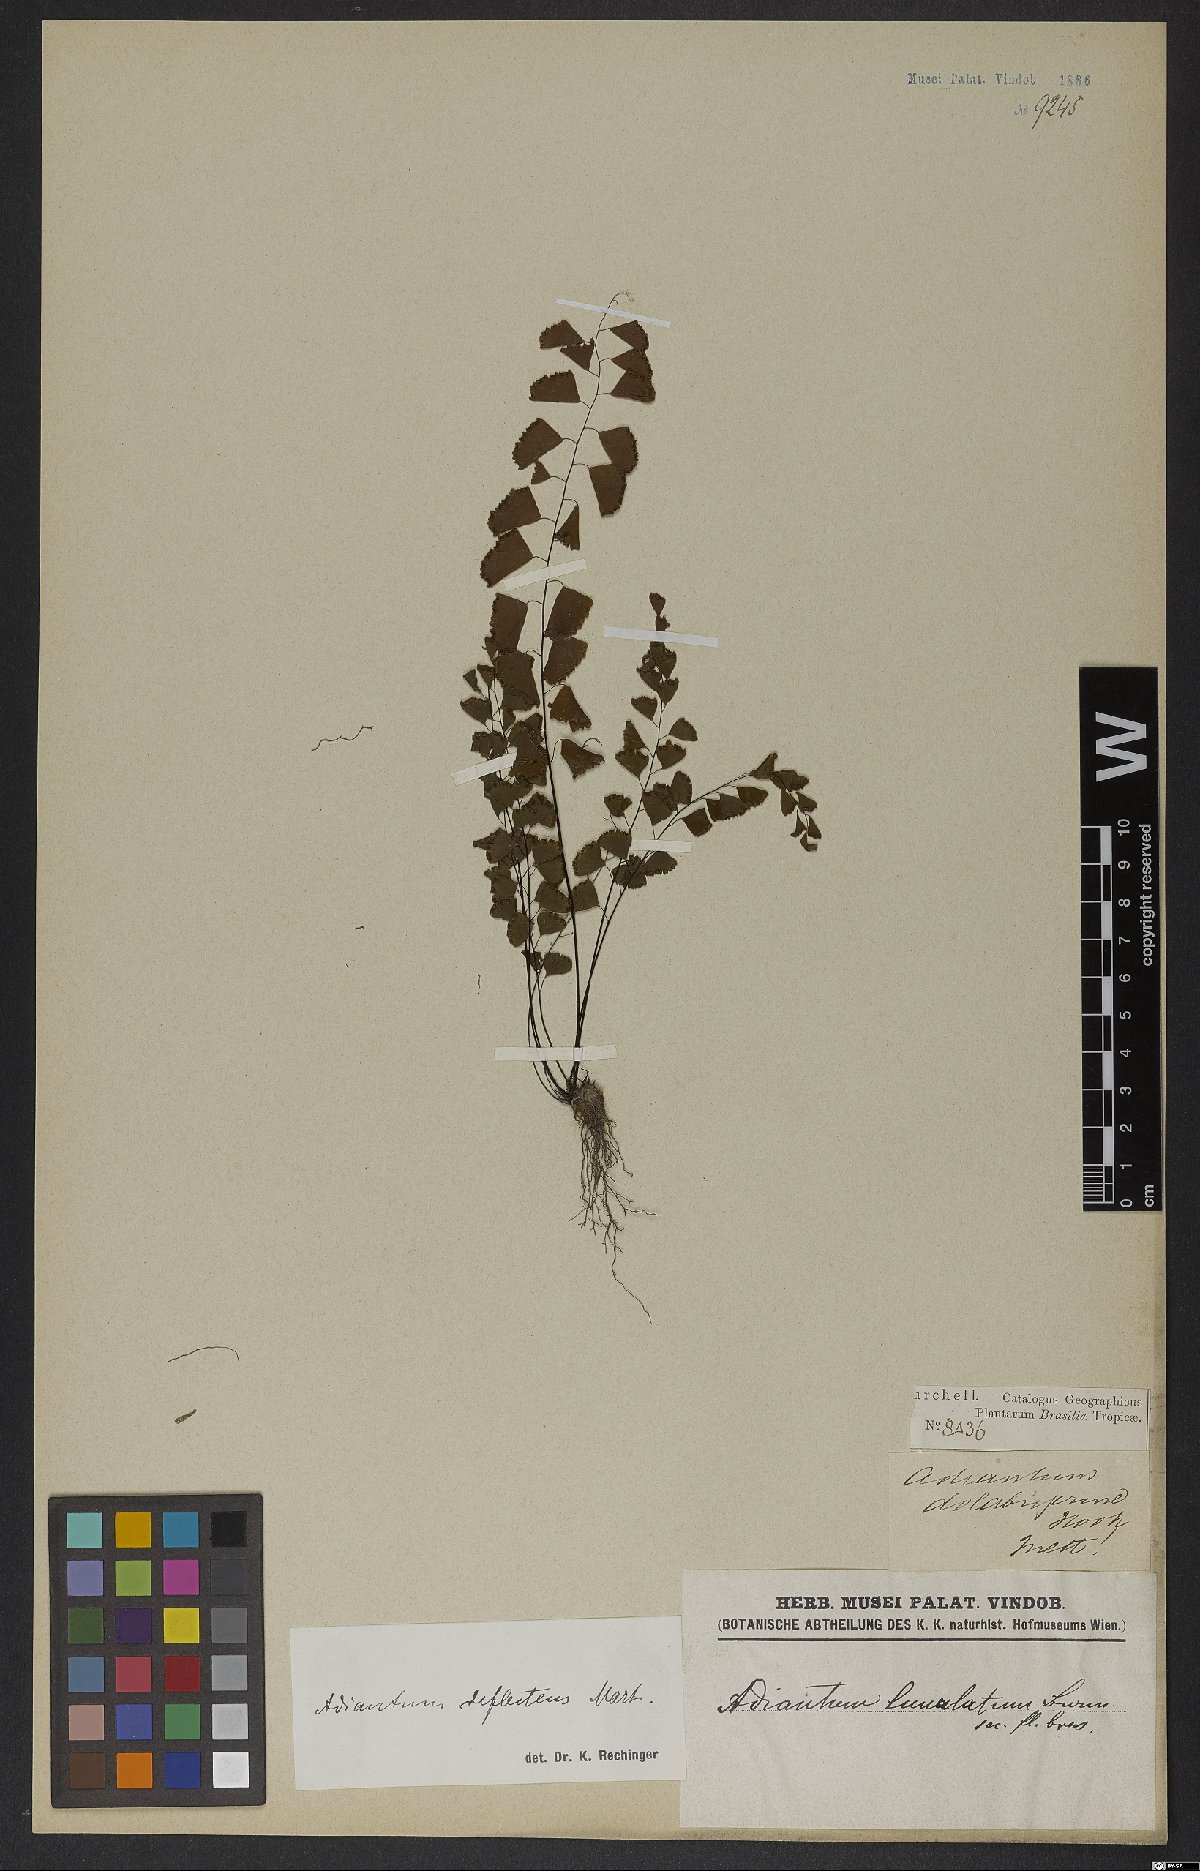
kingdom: Plantae
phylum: Tracheophyta
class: Polypodiopsida
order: Polypodiales
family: Pteridaceae
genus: Adiantum
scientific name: Adiantum deflectens
